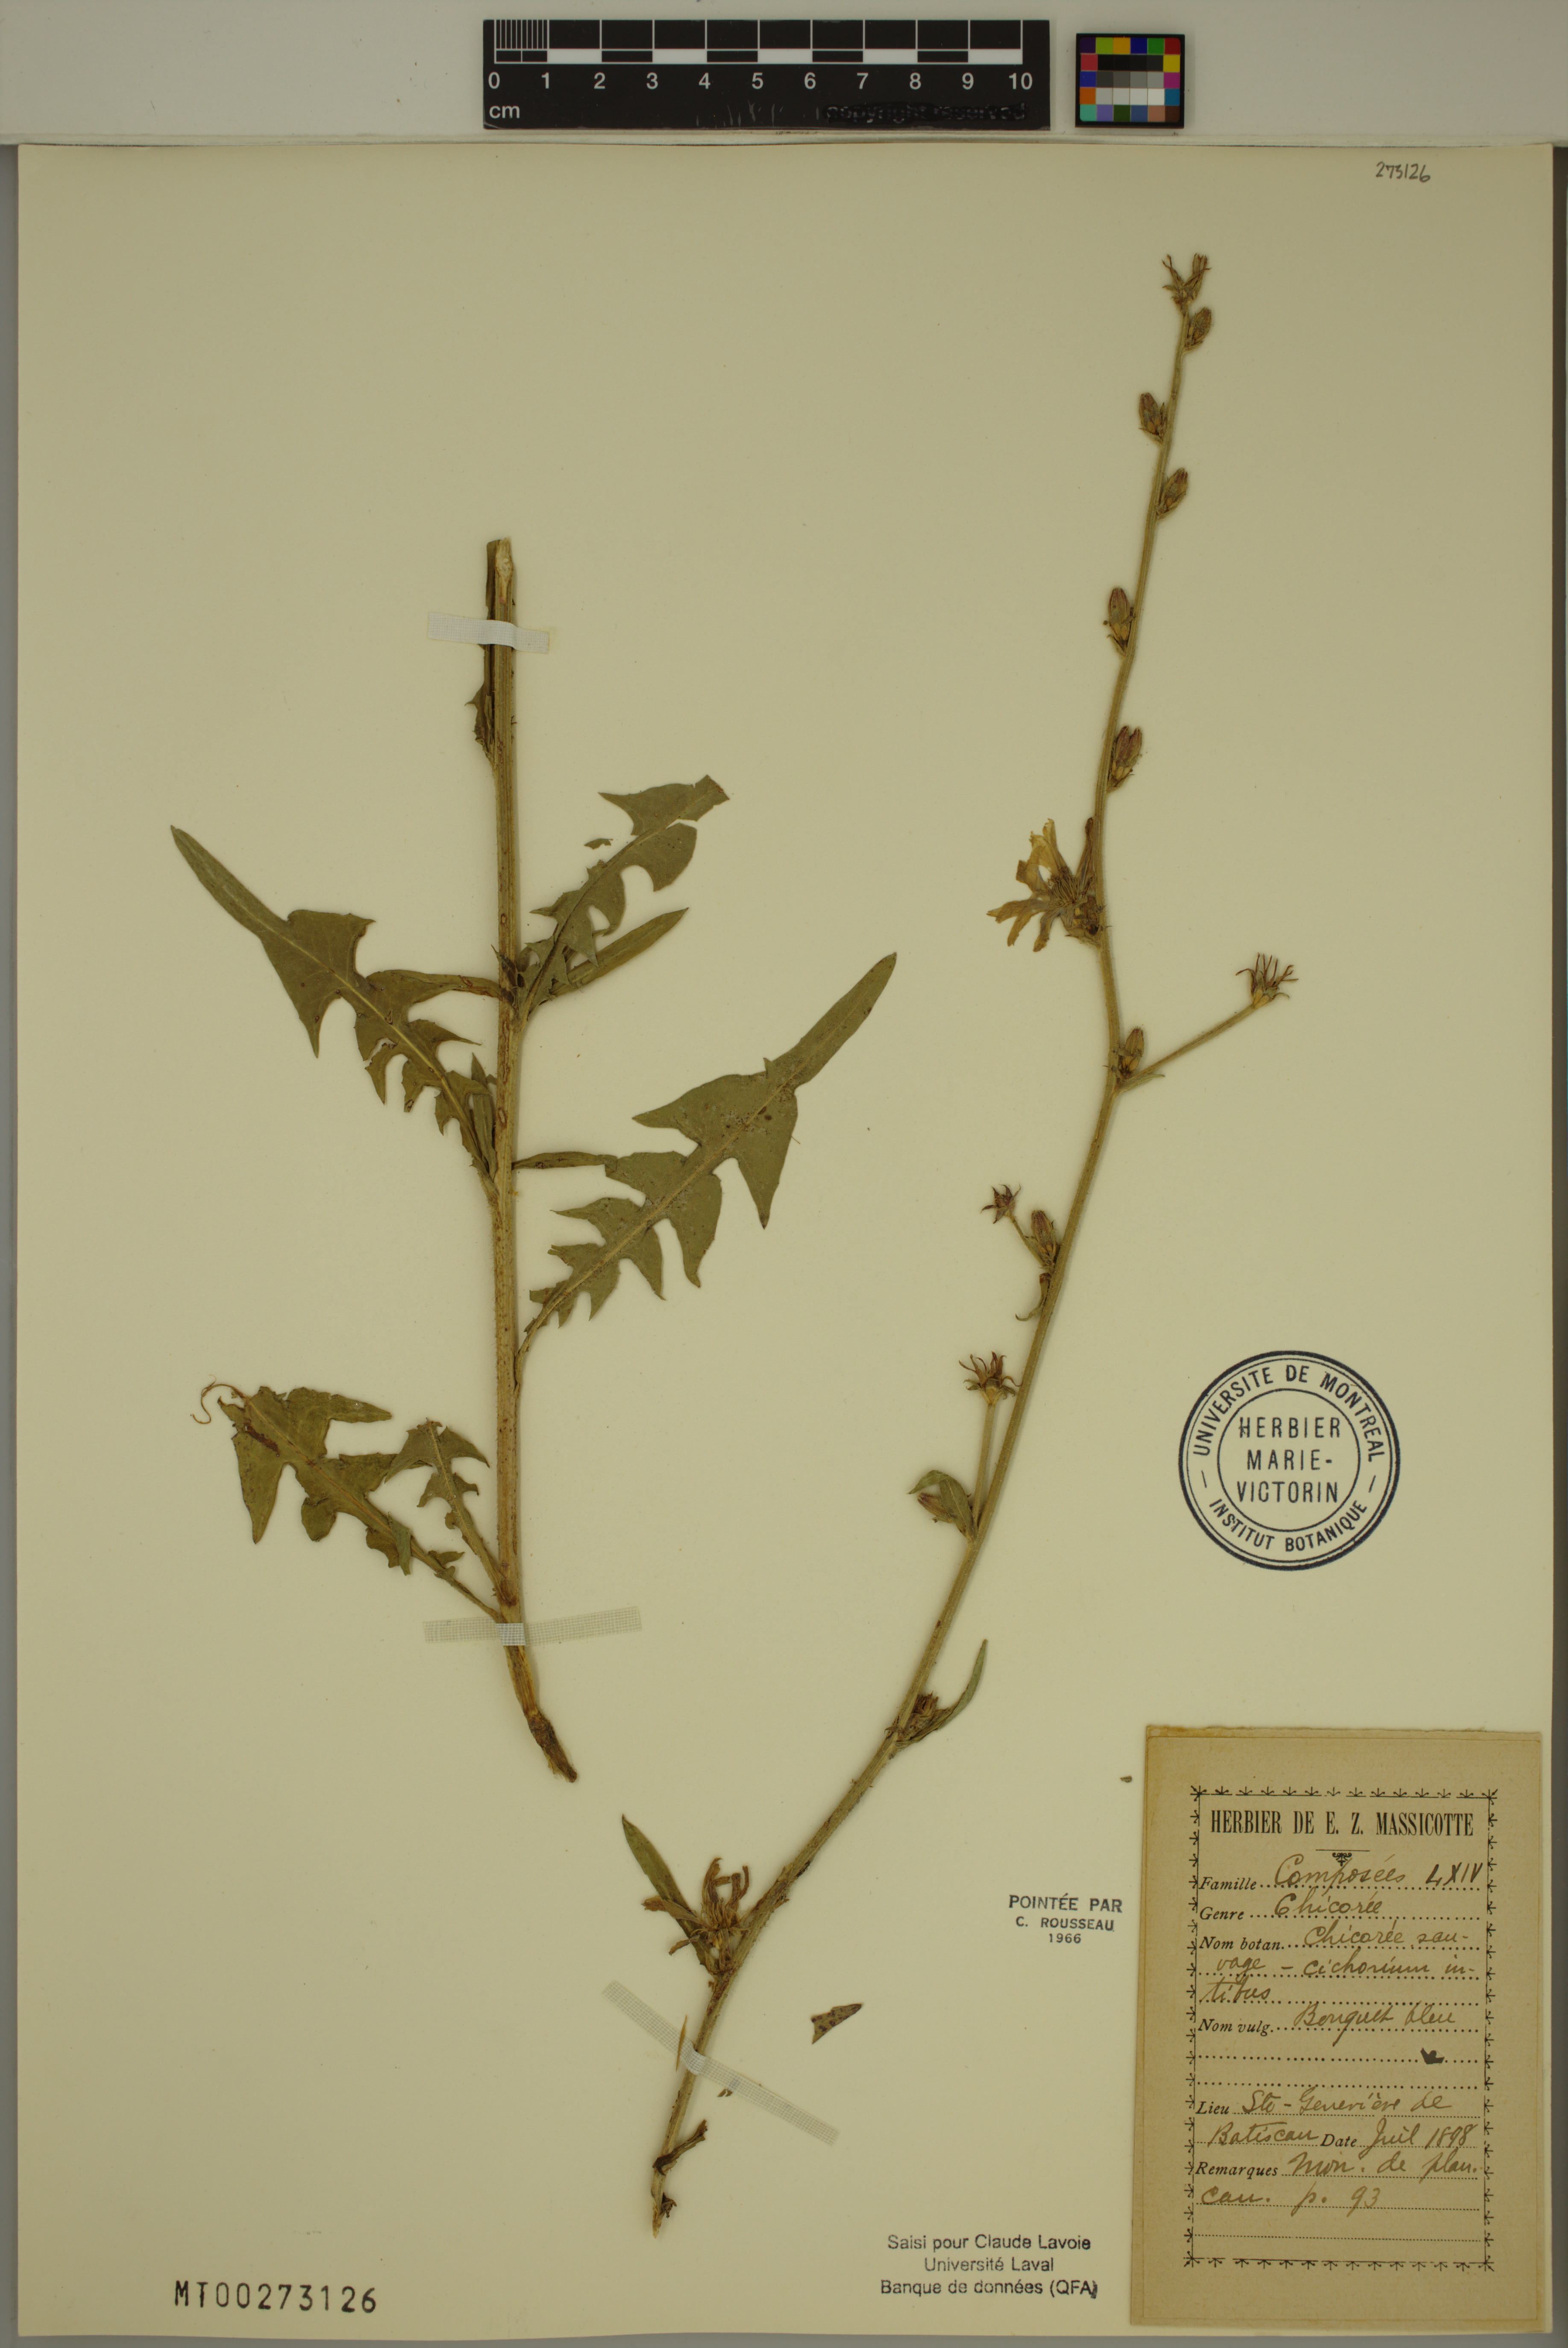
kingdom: Plantae
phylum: Tracheophyta
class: Magnoliopsida
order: Asterales
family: Asteraceae
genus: Cichorium
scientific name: Cichorium intybus
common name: Chicory
